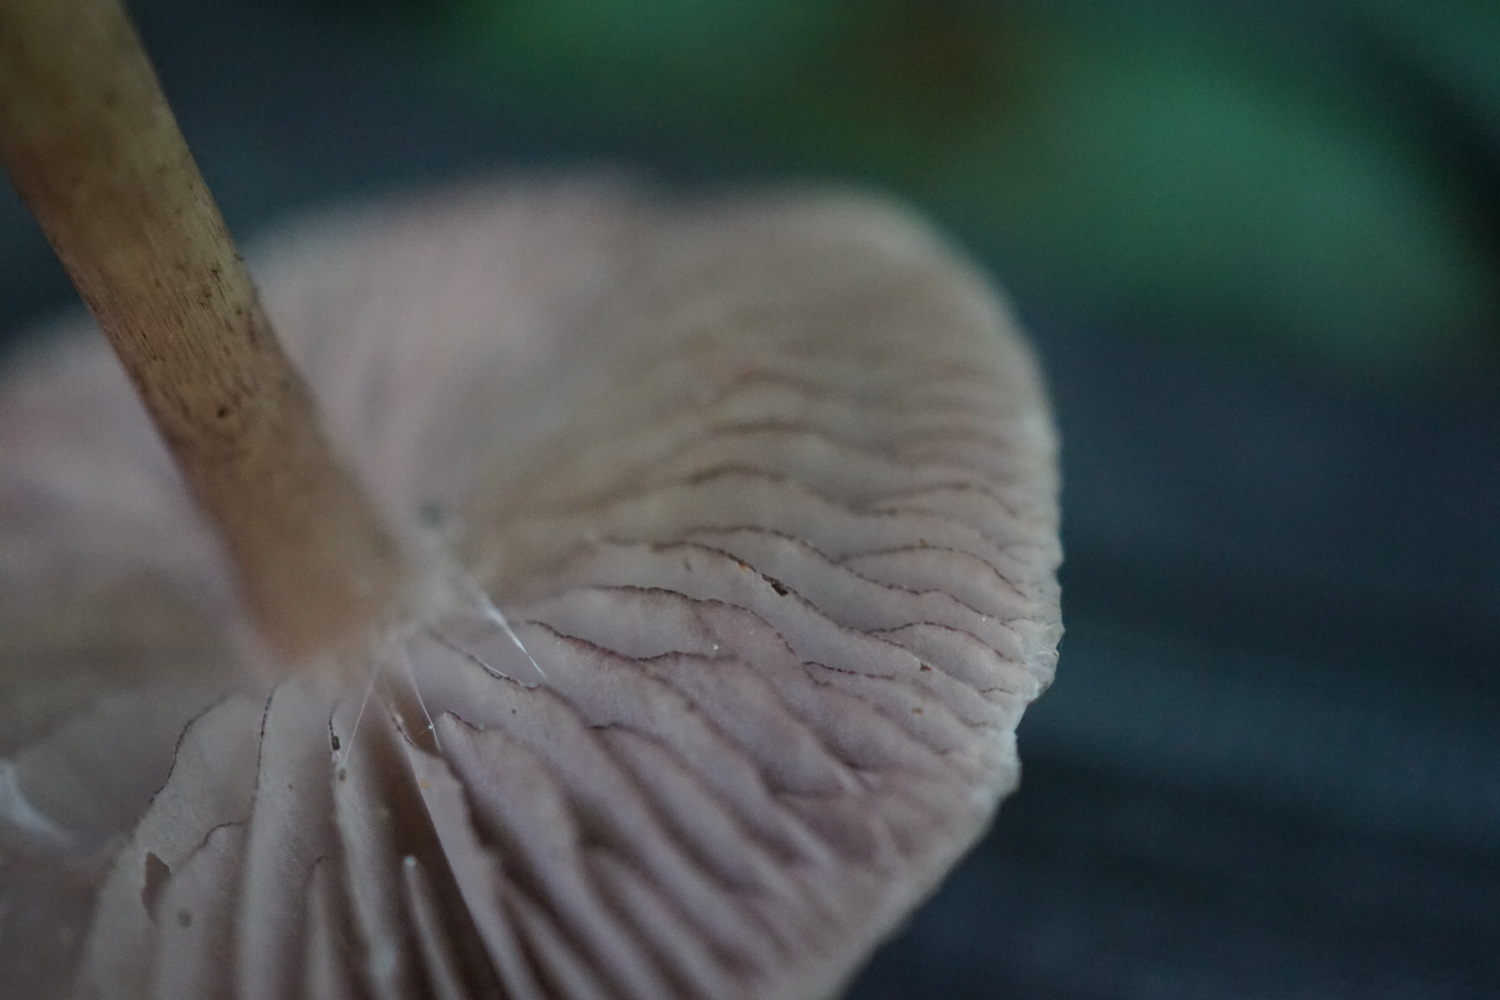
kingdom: Fungi
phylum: Basidiomycota
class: Agaricomycetes
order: Agaricales
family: Mycenaceae
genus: Mycena
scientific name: Mycena pelianthina
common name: mørkbladet huesvamp
